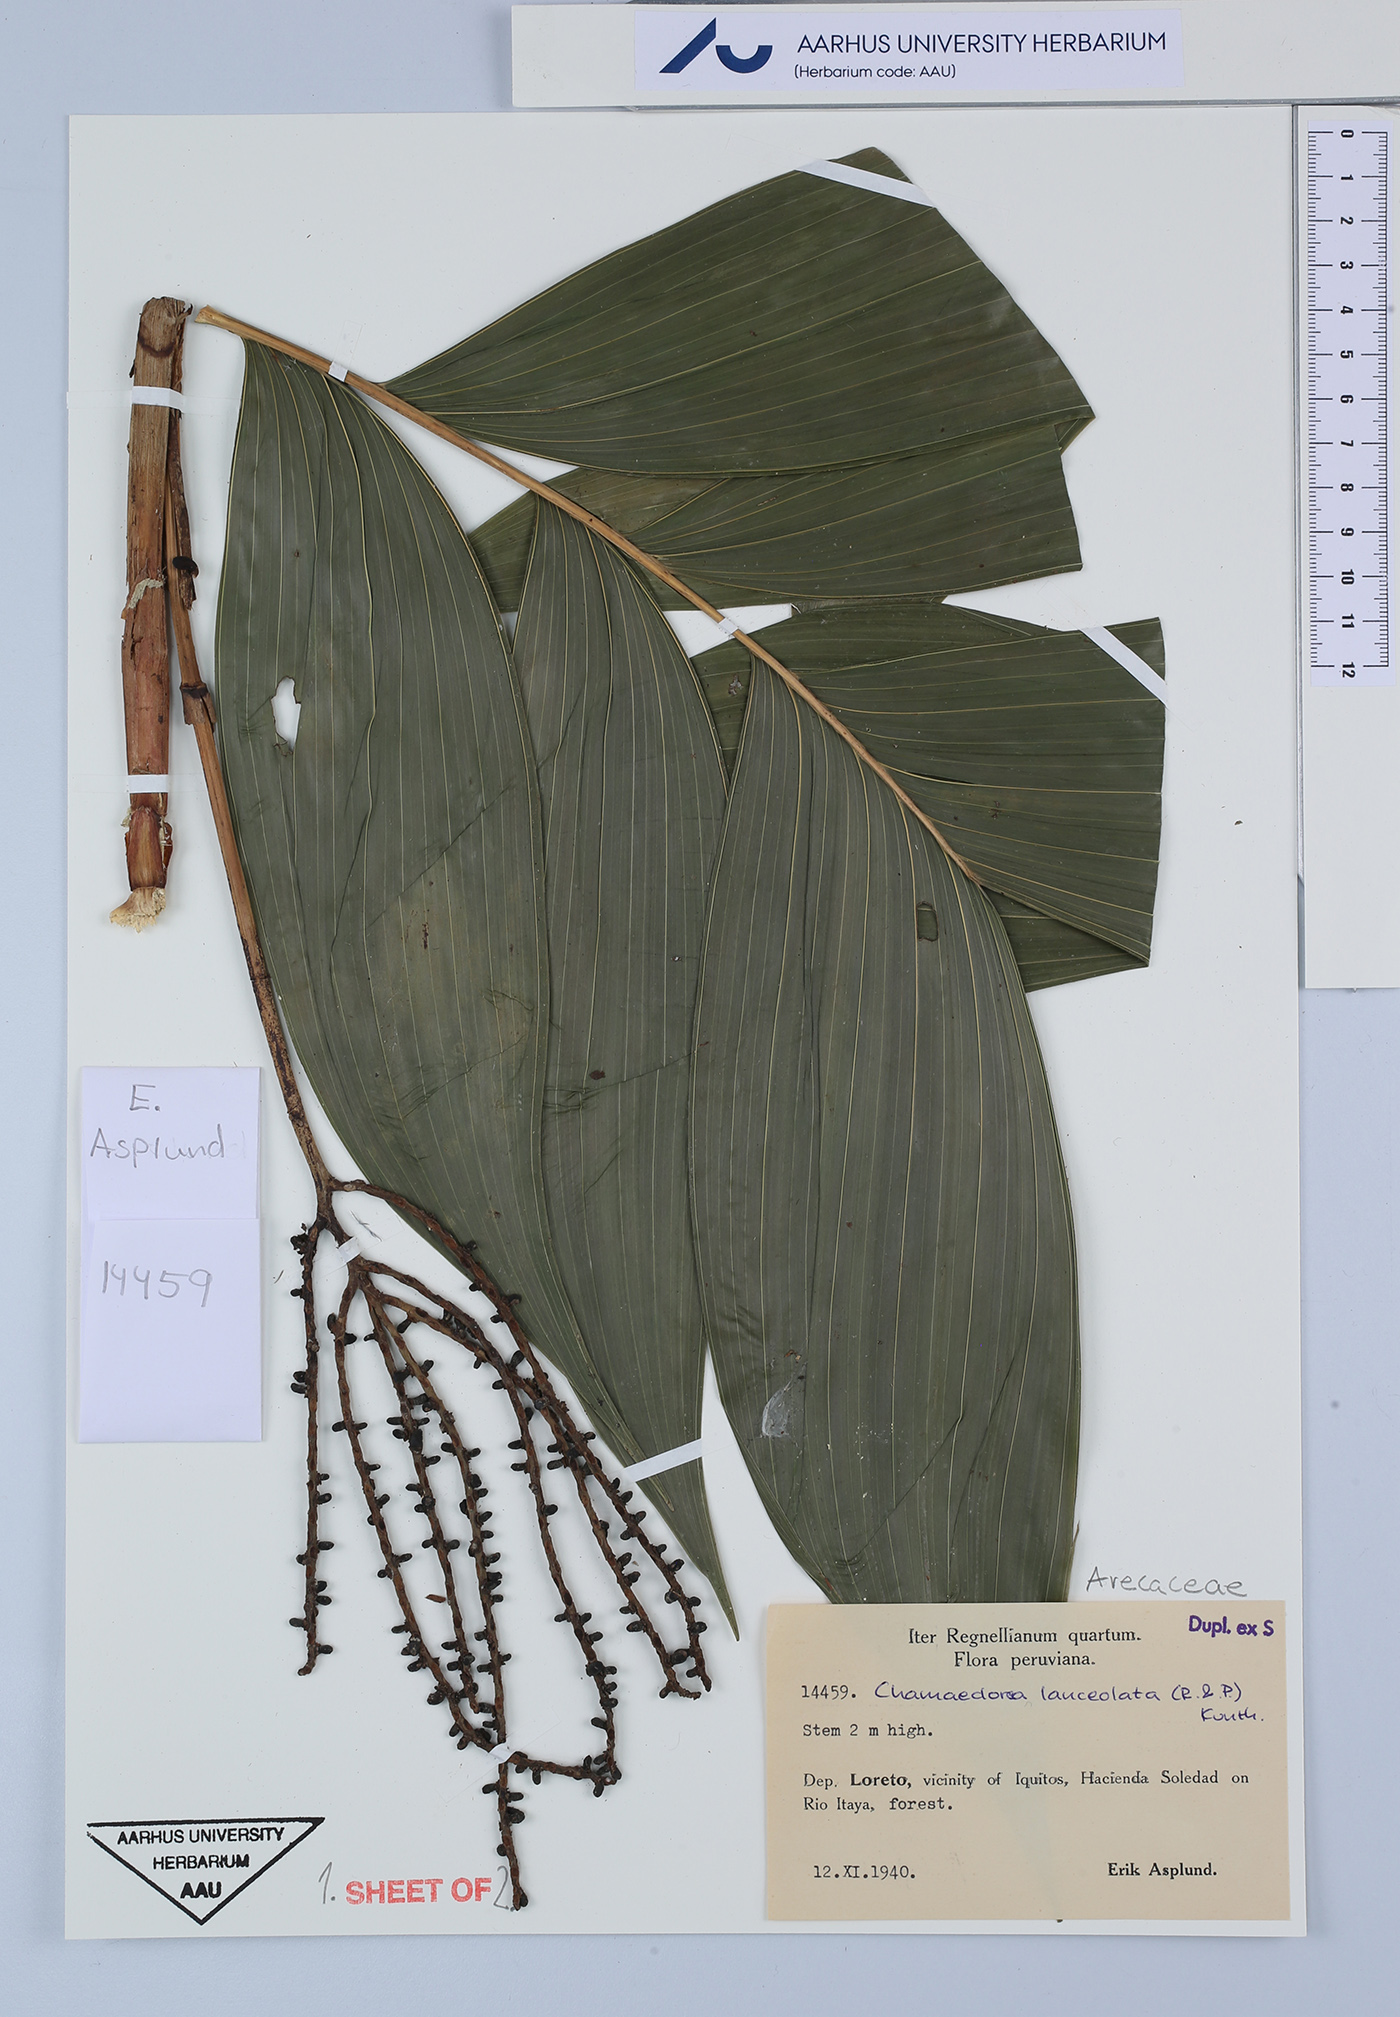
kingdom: Plantae
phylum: Tracheophyta
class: Liliopsida
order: Arecales
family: Arecaceae
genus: Chamaedorea
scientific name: Chamaedorea pinnatifrons
